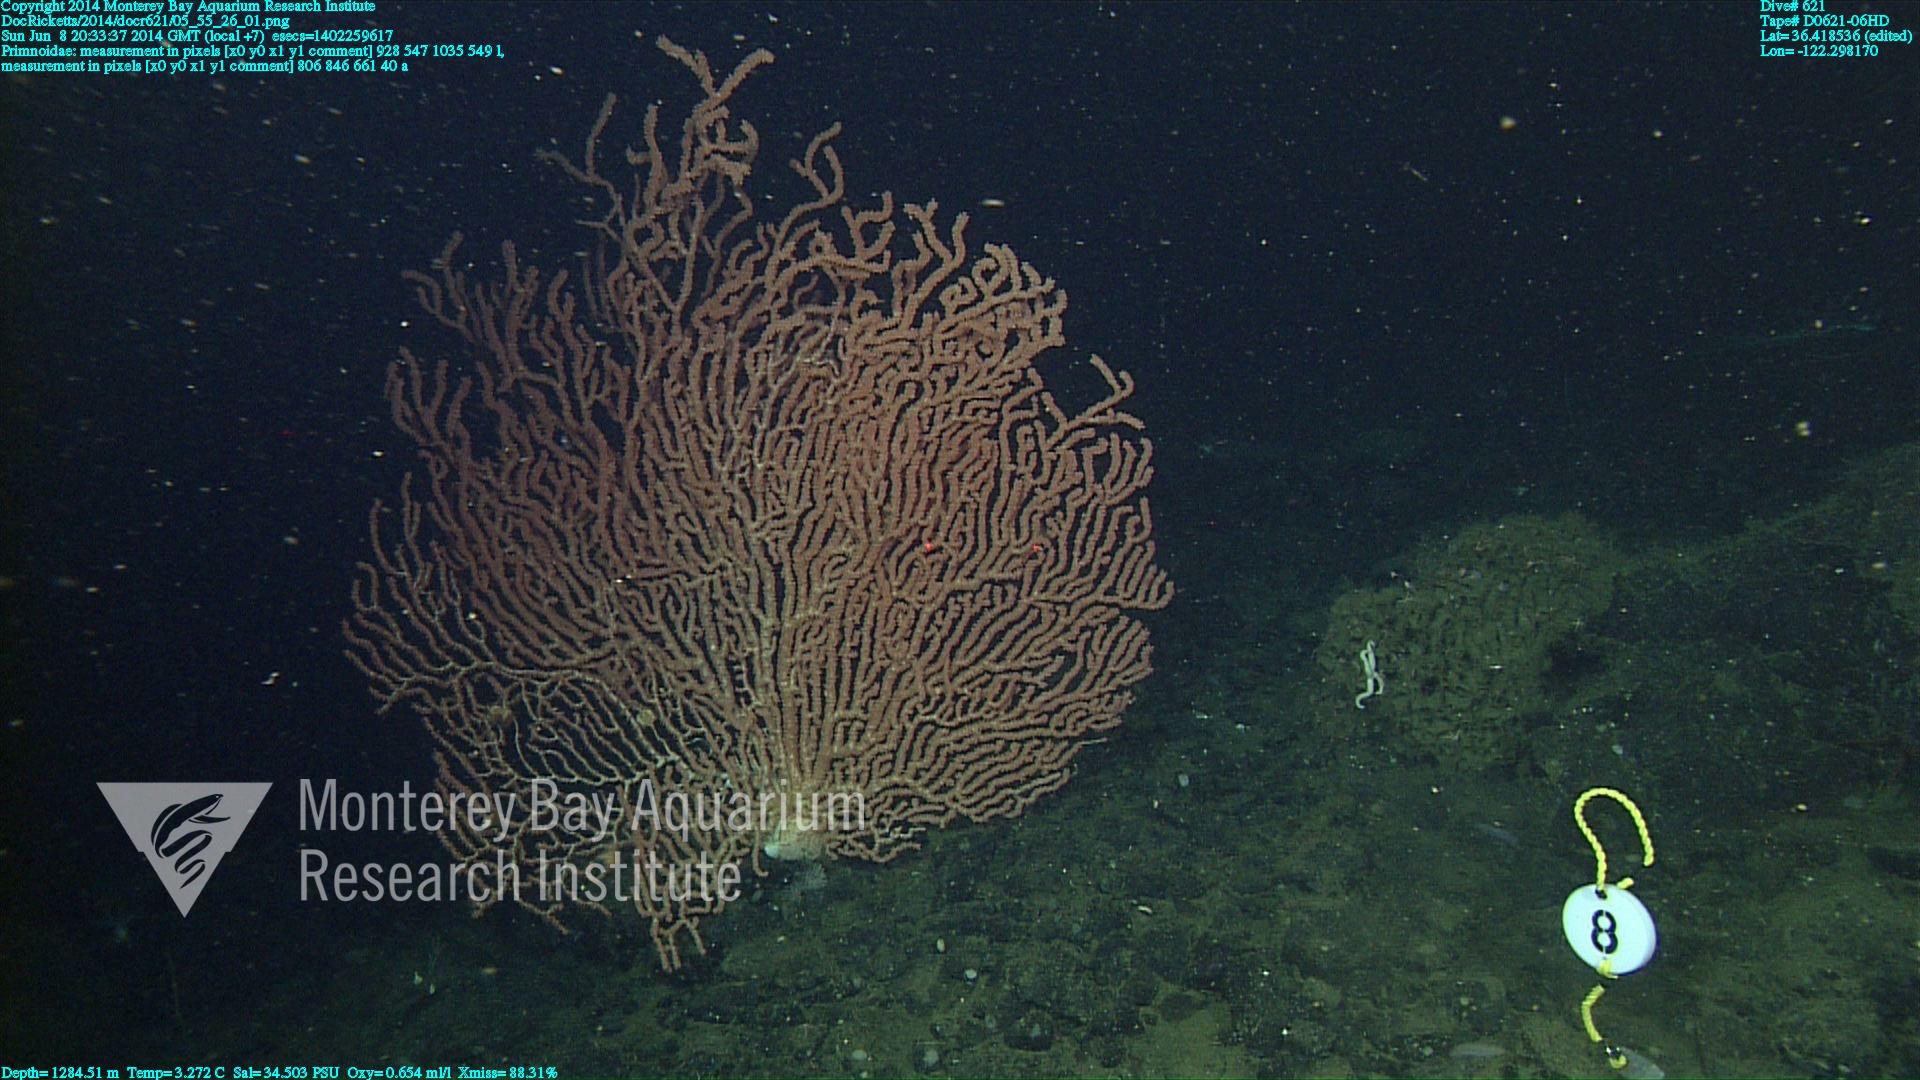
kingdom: Animalia
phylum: Cnidaria
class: Anthozoa
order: Scleralcyonacea
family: Primnoidae
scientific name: Primnoidae
